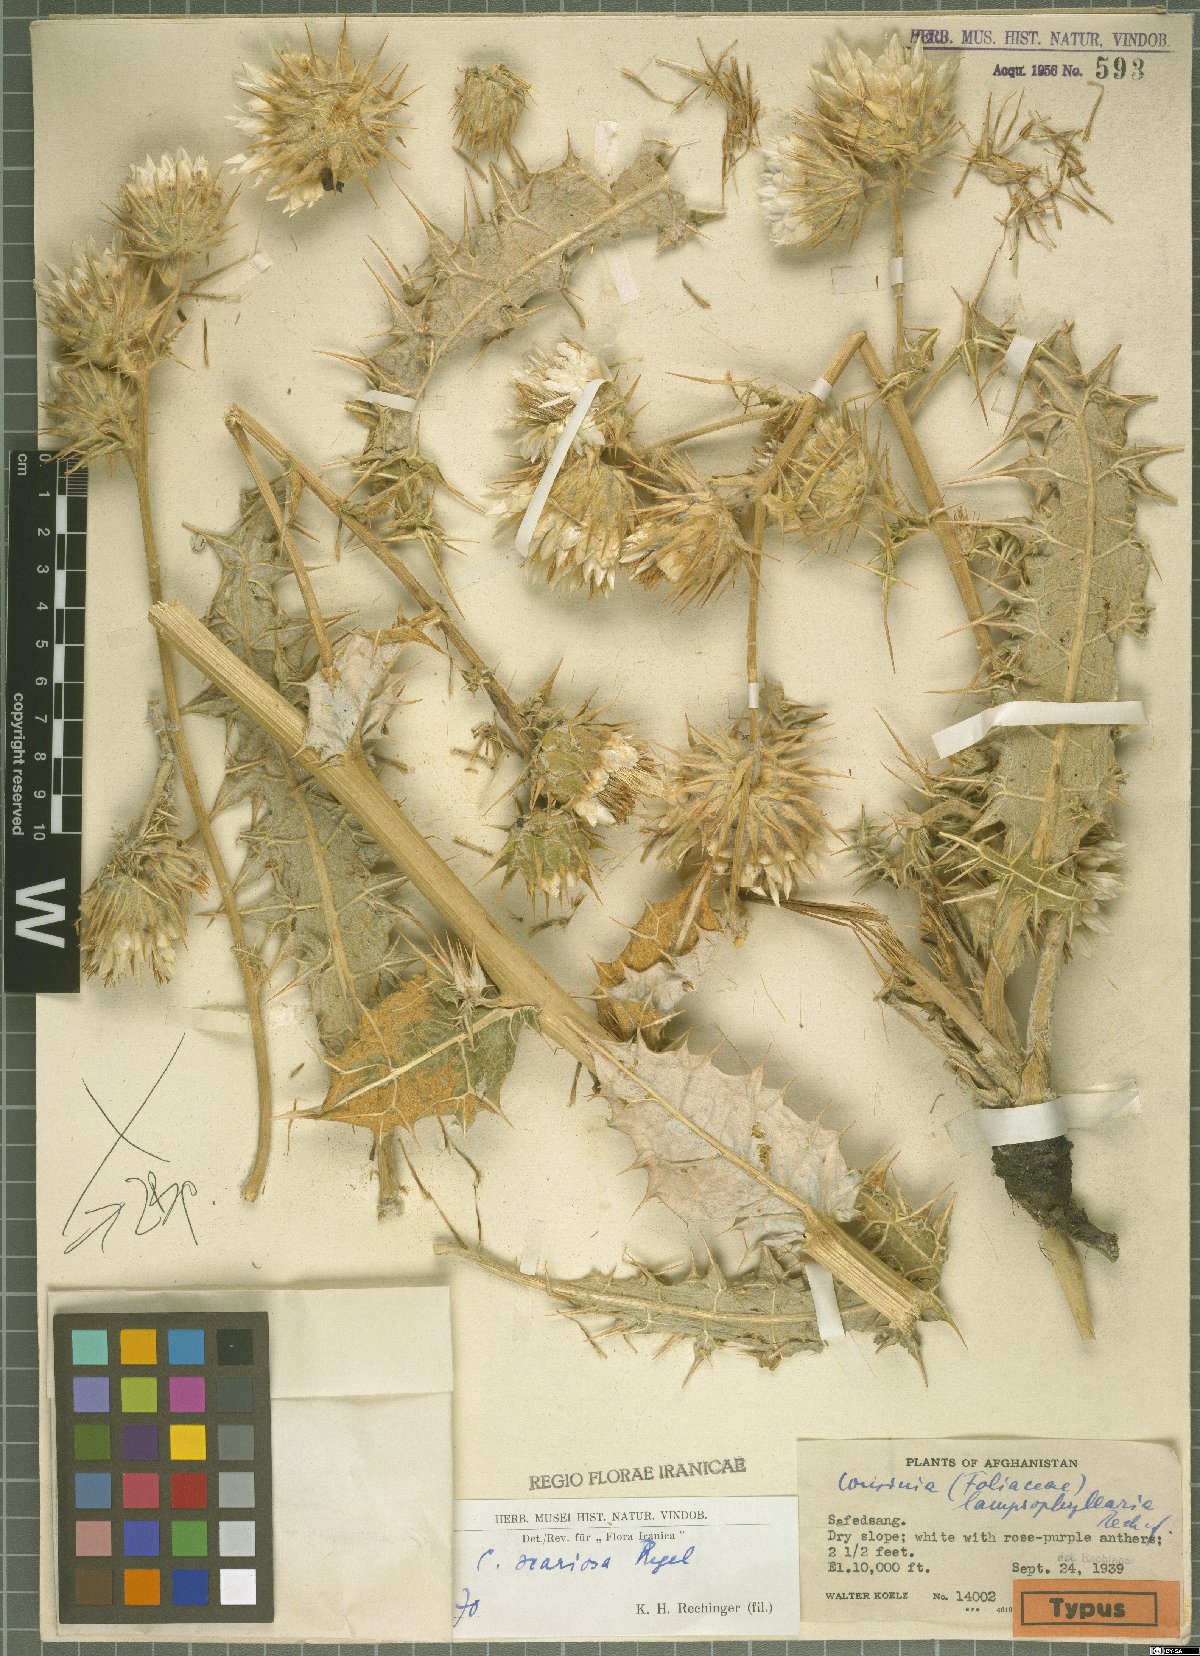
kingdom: Plantae
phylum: Tracheophyta
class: Magnoliopsida
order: Asterales
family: Asteraceae
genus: Cousinia
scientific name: Cousinia scariosa
